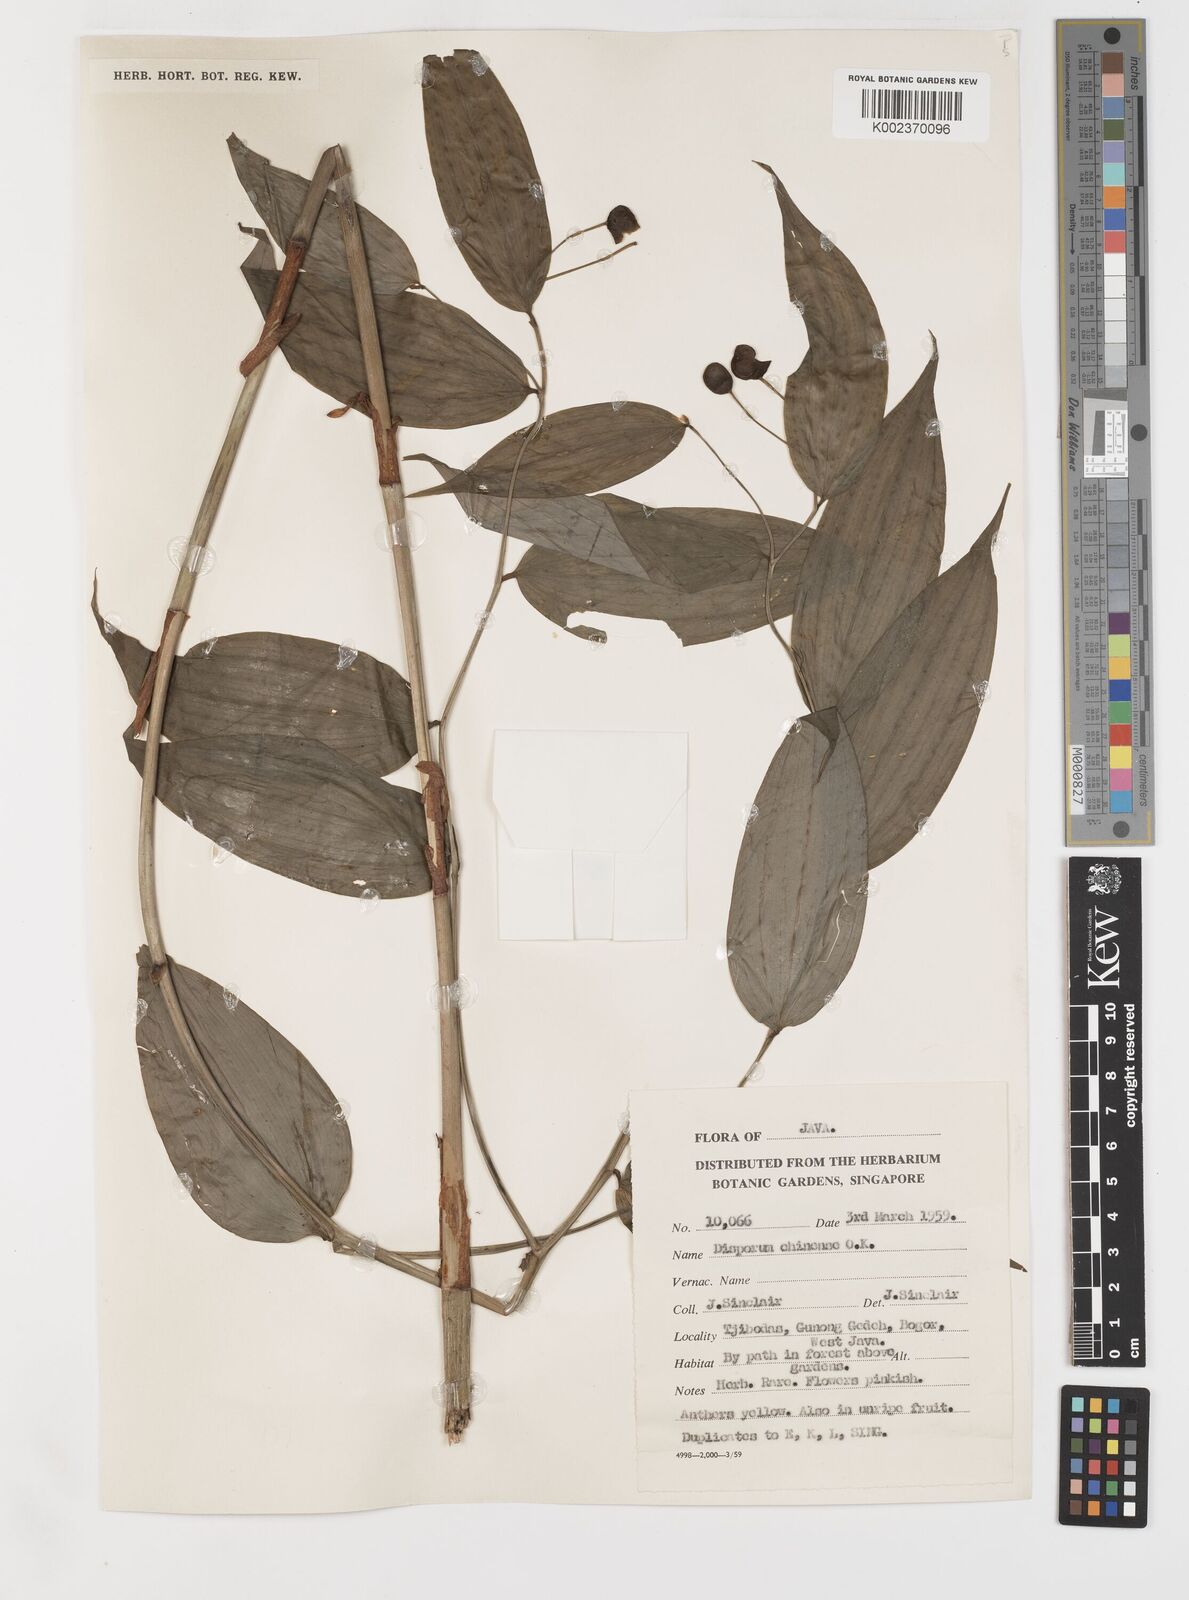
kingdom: Plantae
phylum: Tracheophyta
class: Liliopsida
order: Liliales
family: Colchicaceae
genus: Disporum
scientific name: Disporum cantoniense
